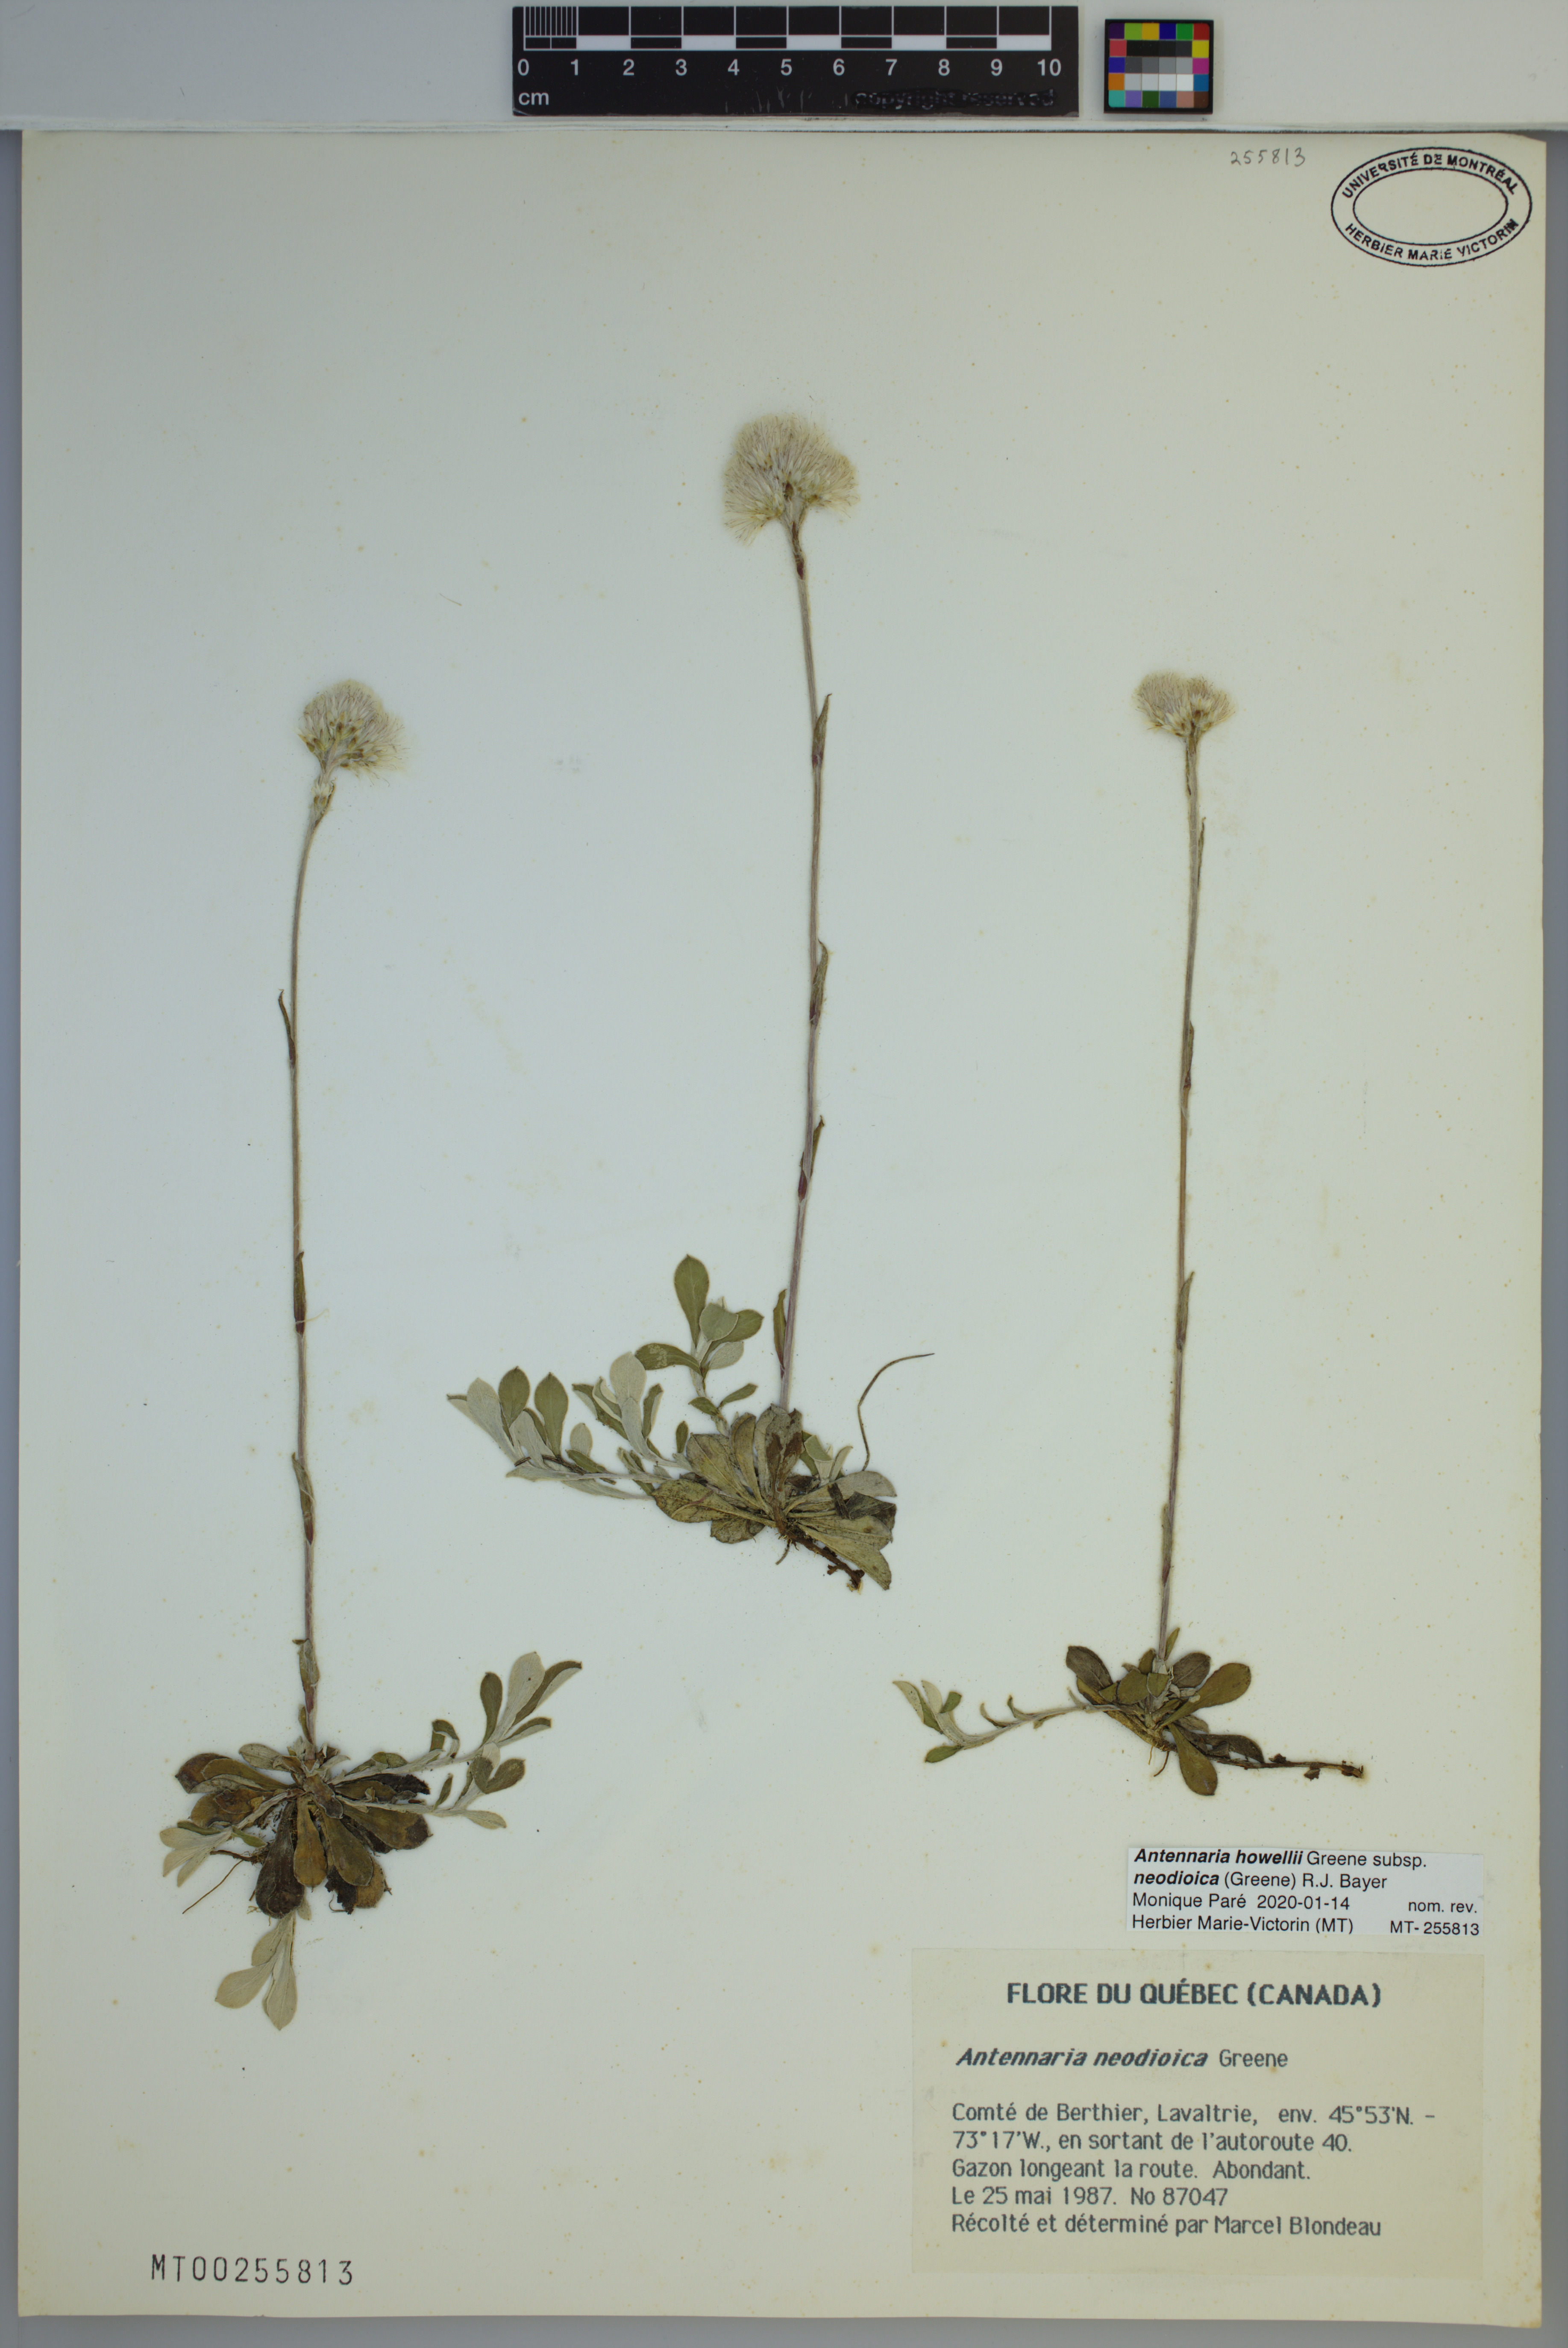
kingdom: Plantae
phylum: Tracheophyta
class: Magnoliopsida
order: Asterales
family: Asteraceae
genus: Antennaria
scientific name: Antennaria howellii
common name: Howell's pussytoes
